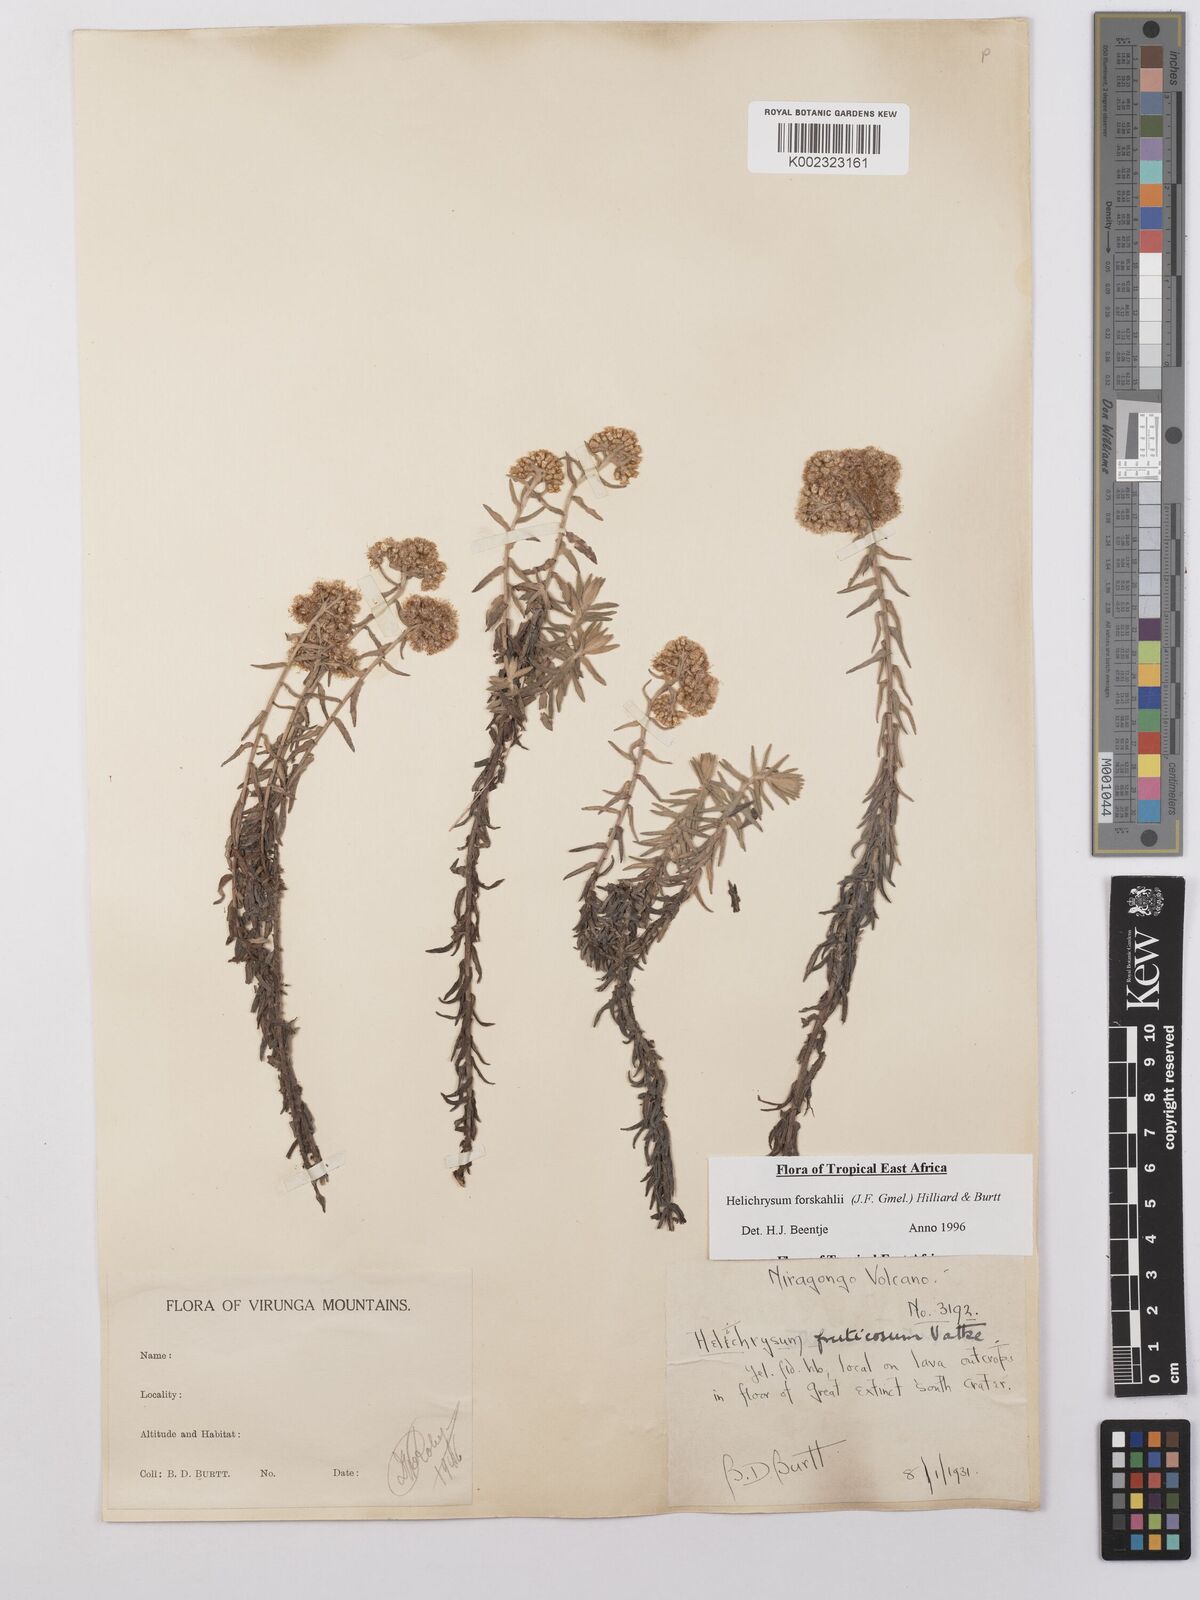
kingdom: Plantae
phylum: Tracheophyta
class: Magnoliopsida
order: Asterales
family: Asteraceae
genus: Helichrysum
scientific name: Helichrysum forskahlii
